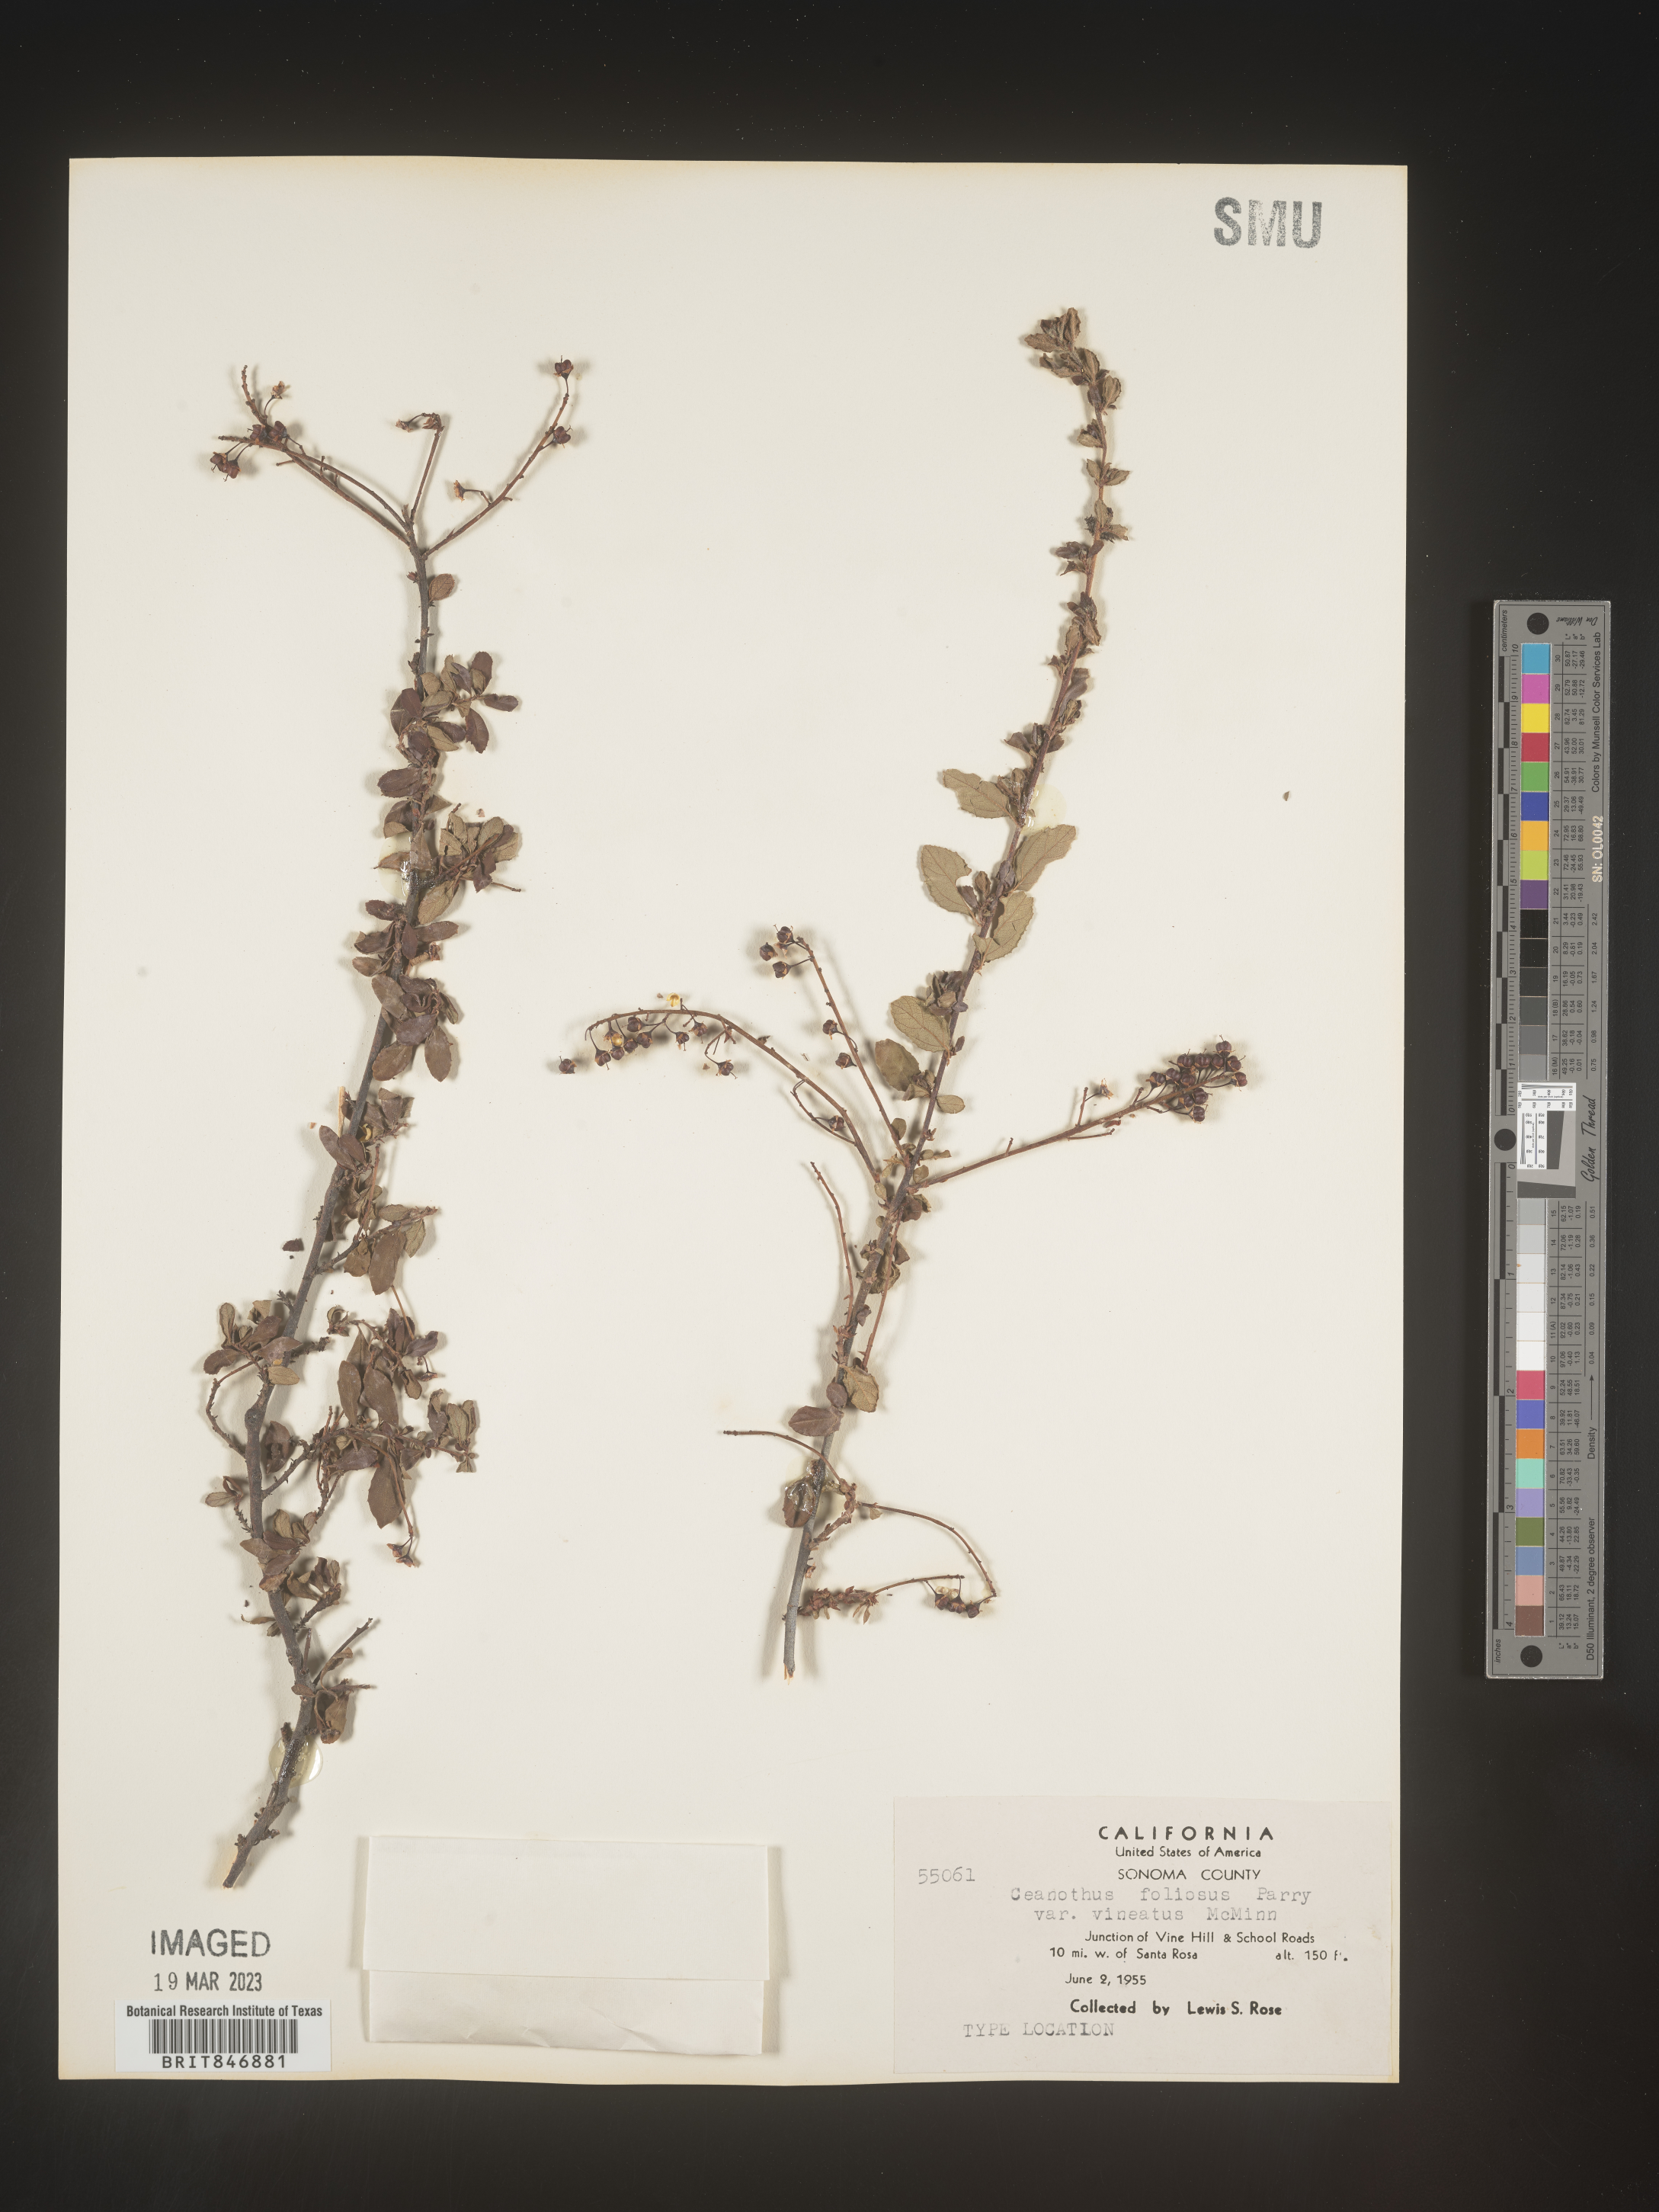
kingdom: Plantae
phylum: Tracheophyta
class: Magnoliopsida
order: Rosales
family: Rhamnaceae
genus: Ceanothus
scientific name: Ceanothus
